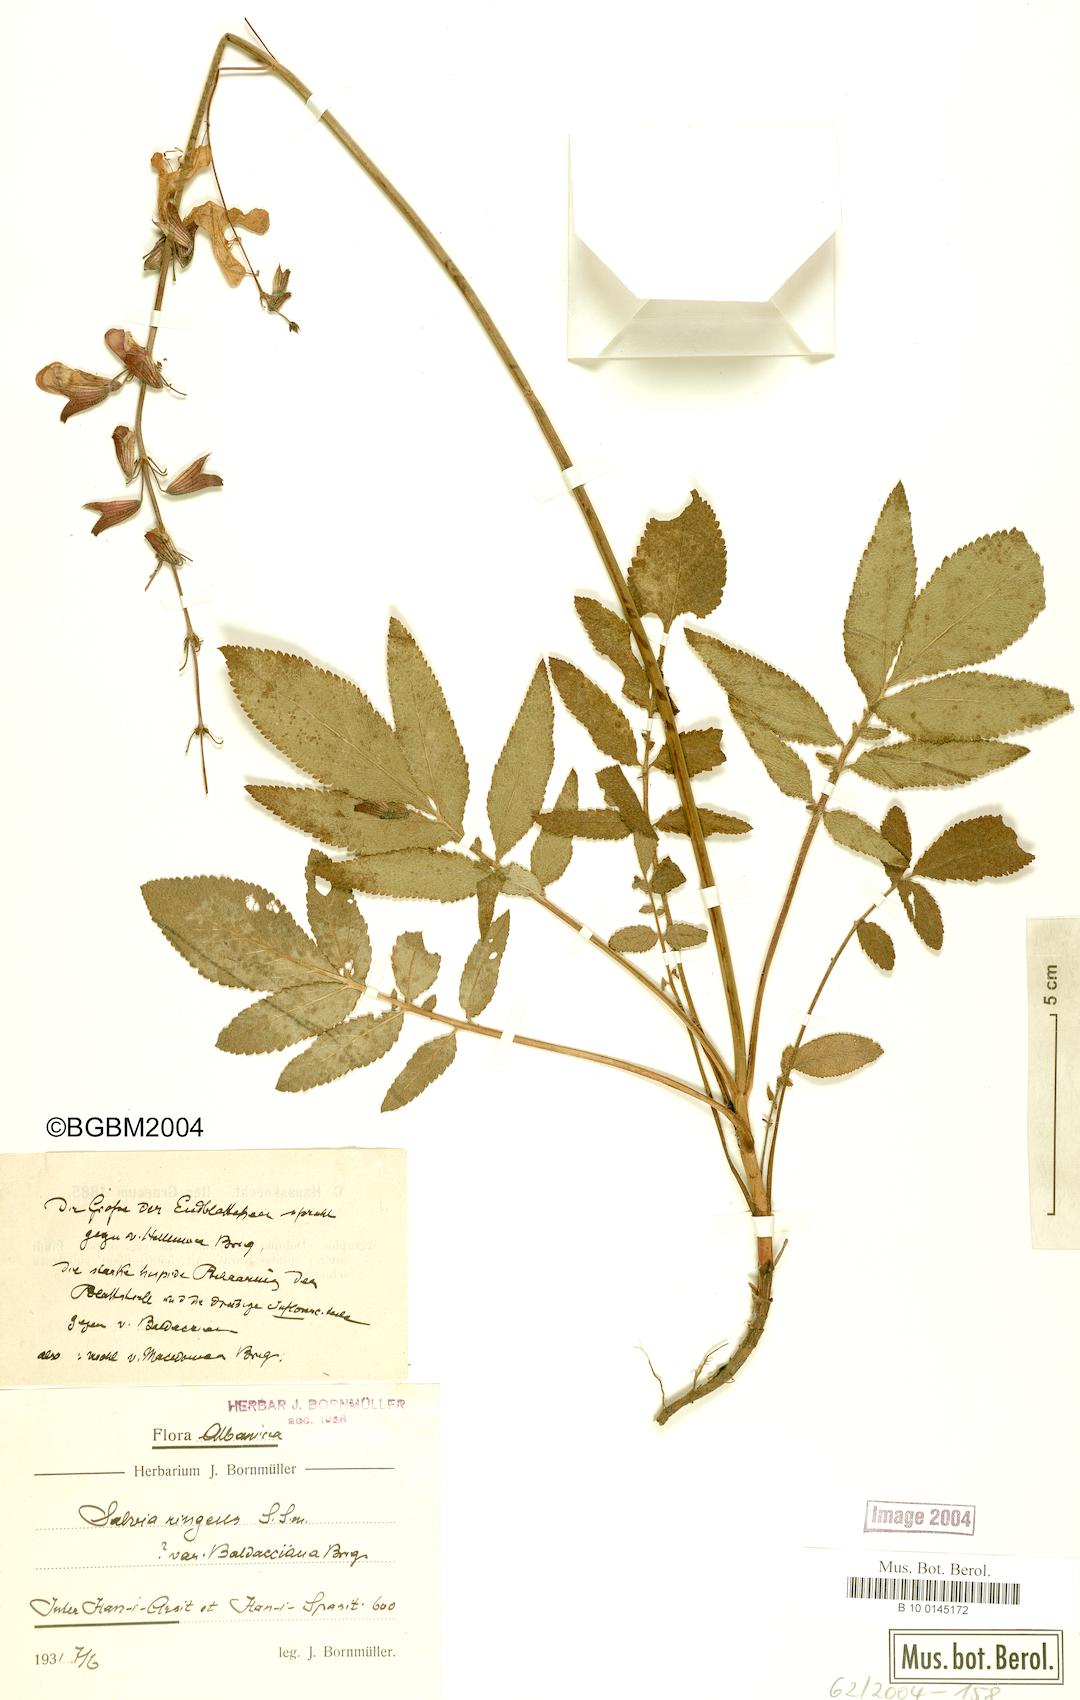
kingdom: Plantae
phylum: Tracheophyta
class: Magnoliopsida
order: Lamiales
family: Lamiaceae
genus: Salvia
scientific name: Salvia ringens
